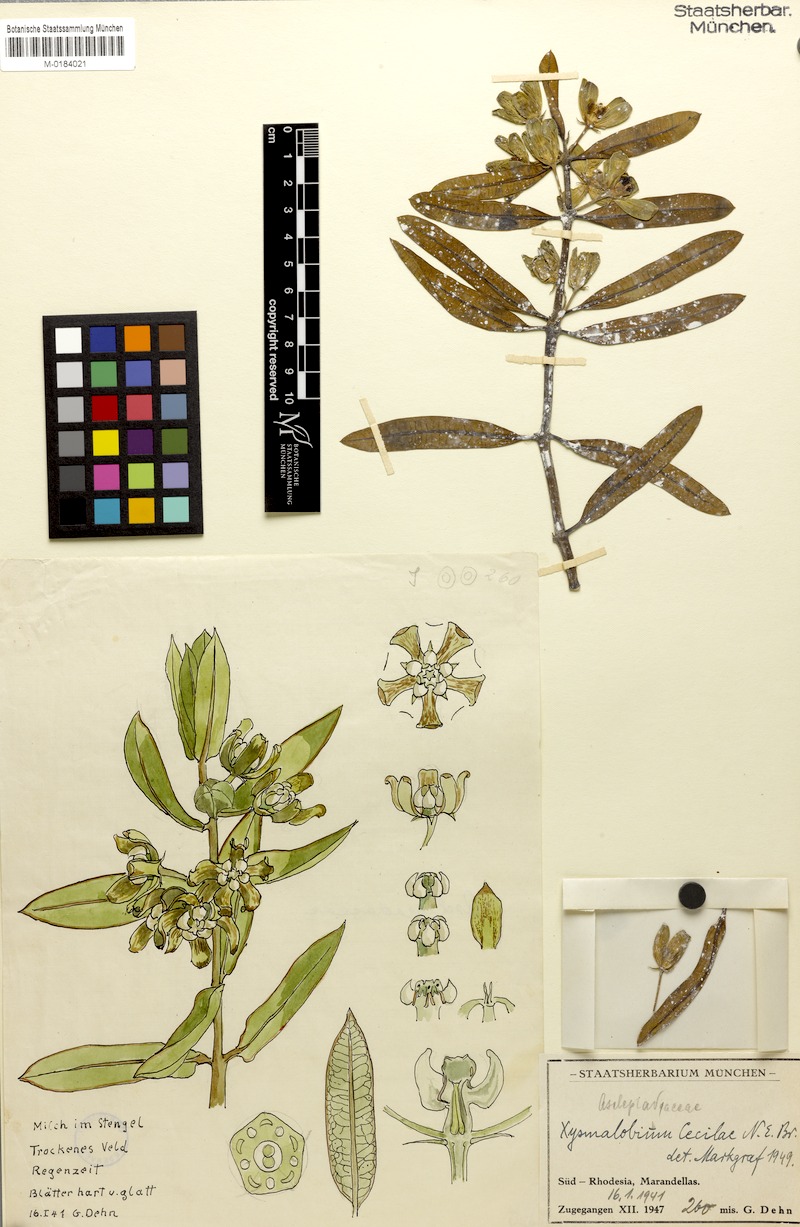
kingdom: Plantae
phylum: Tracheophyta
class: Magnoliopsida
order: Gentianales
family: Apocynaceae
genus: Glossostelma
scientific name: Glossostelma ceciliae
